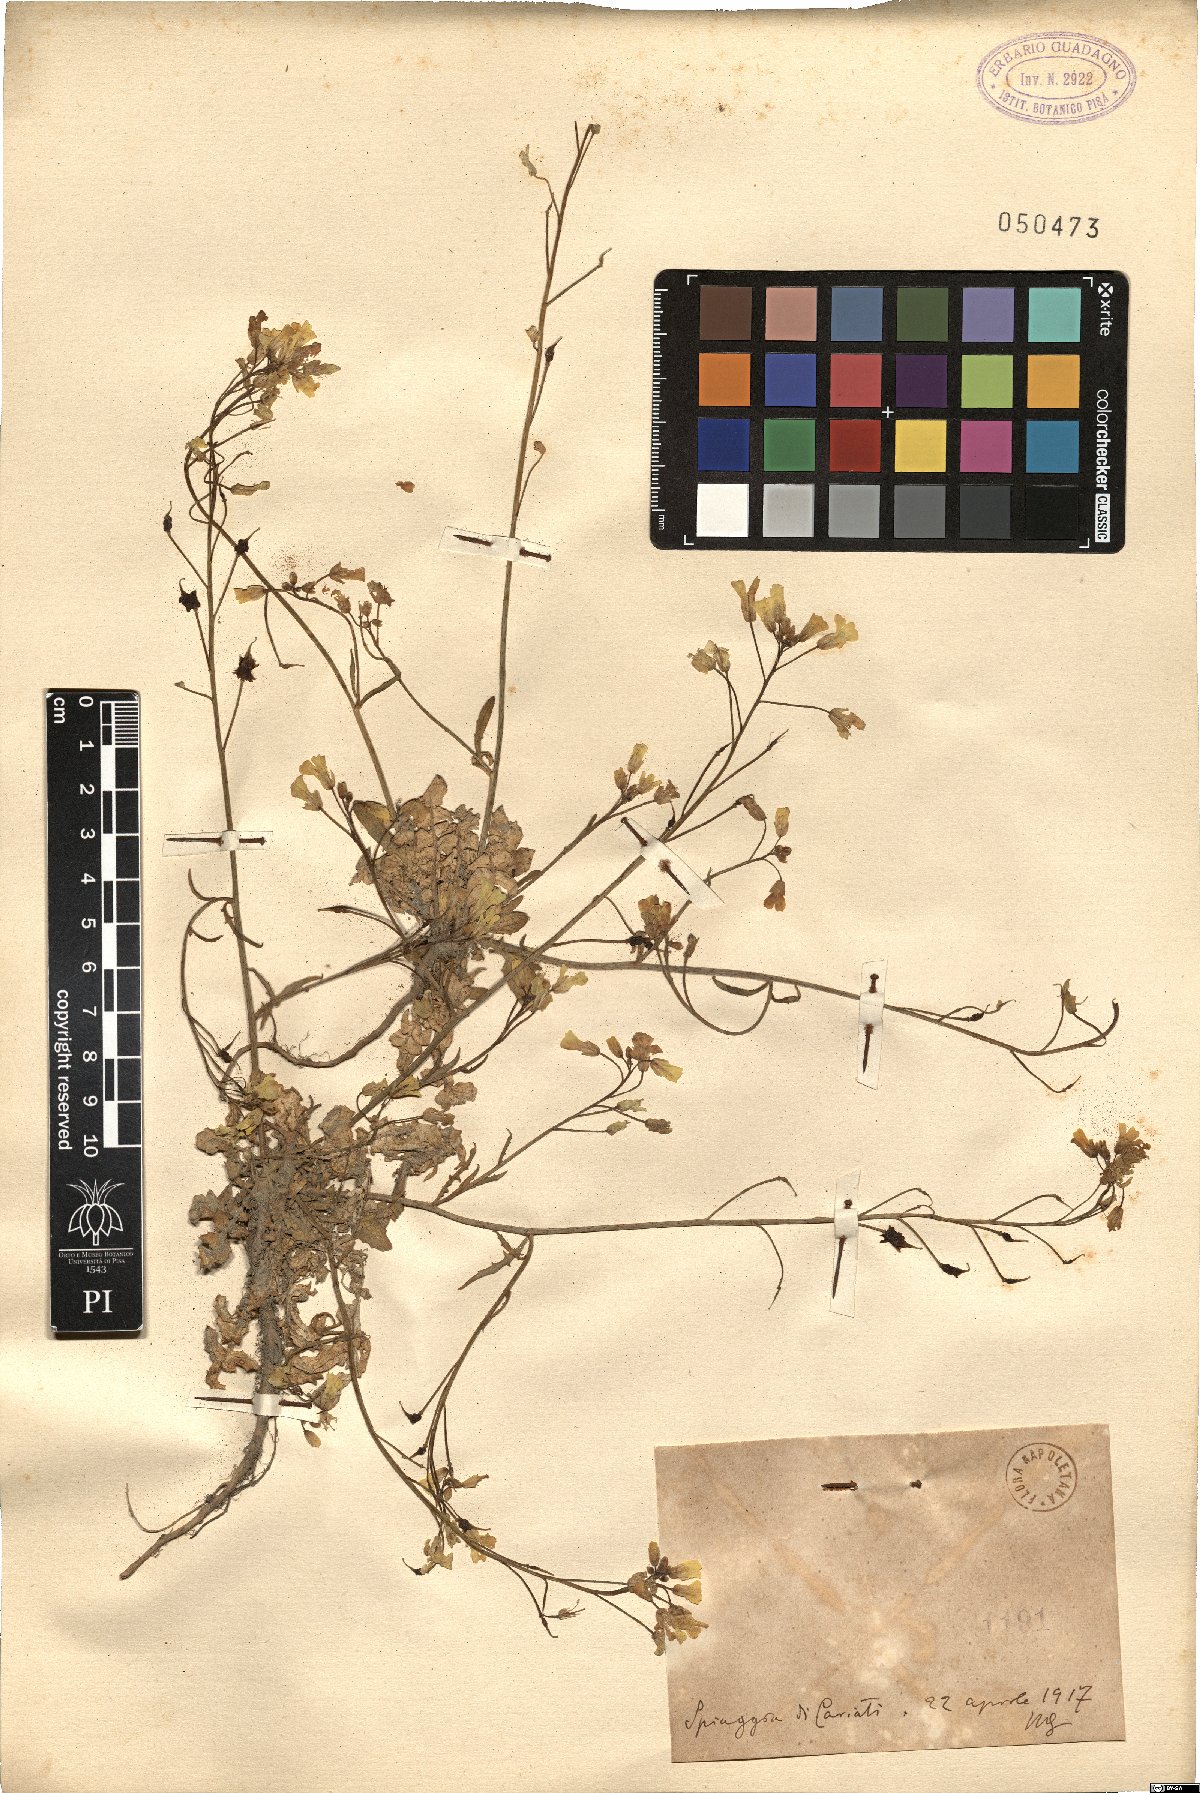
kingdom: Plantae
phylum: Tracheophyta
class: Magnoliopsida
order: Brassicales
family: Brassicaceae
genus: Bunias
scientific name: Bunias
